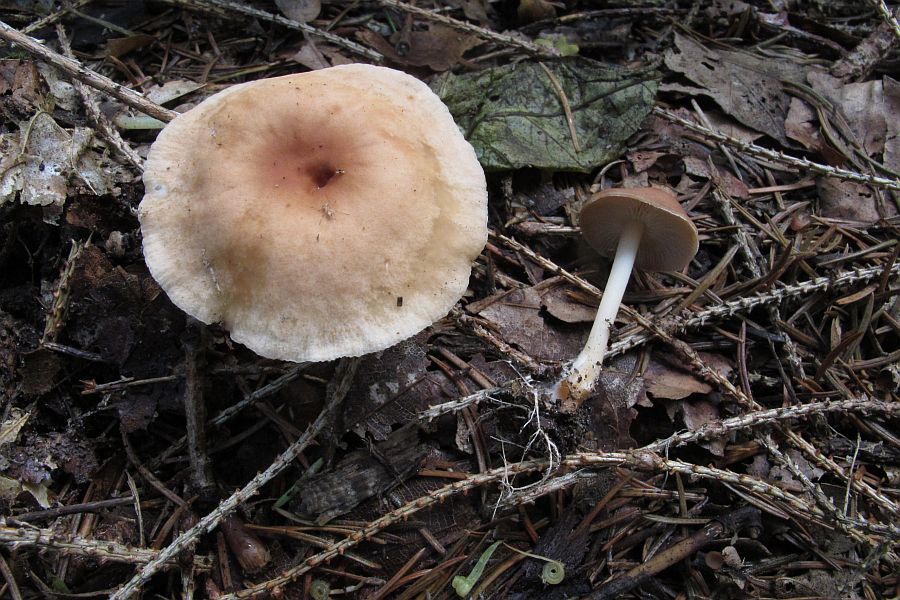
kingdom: Fungi
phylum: Basidiomycota
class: Agaricomycetes
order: Agaricales
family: Omphalotaceae
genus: Gymnopus
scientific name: Gymnopus dryophilus
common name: løv-fladhat
